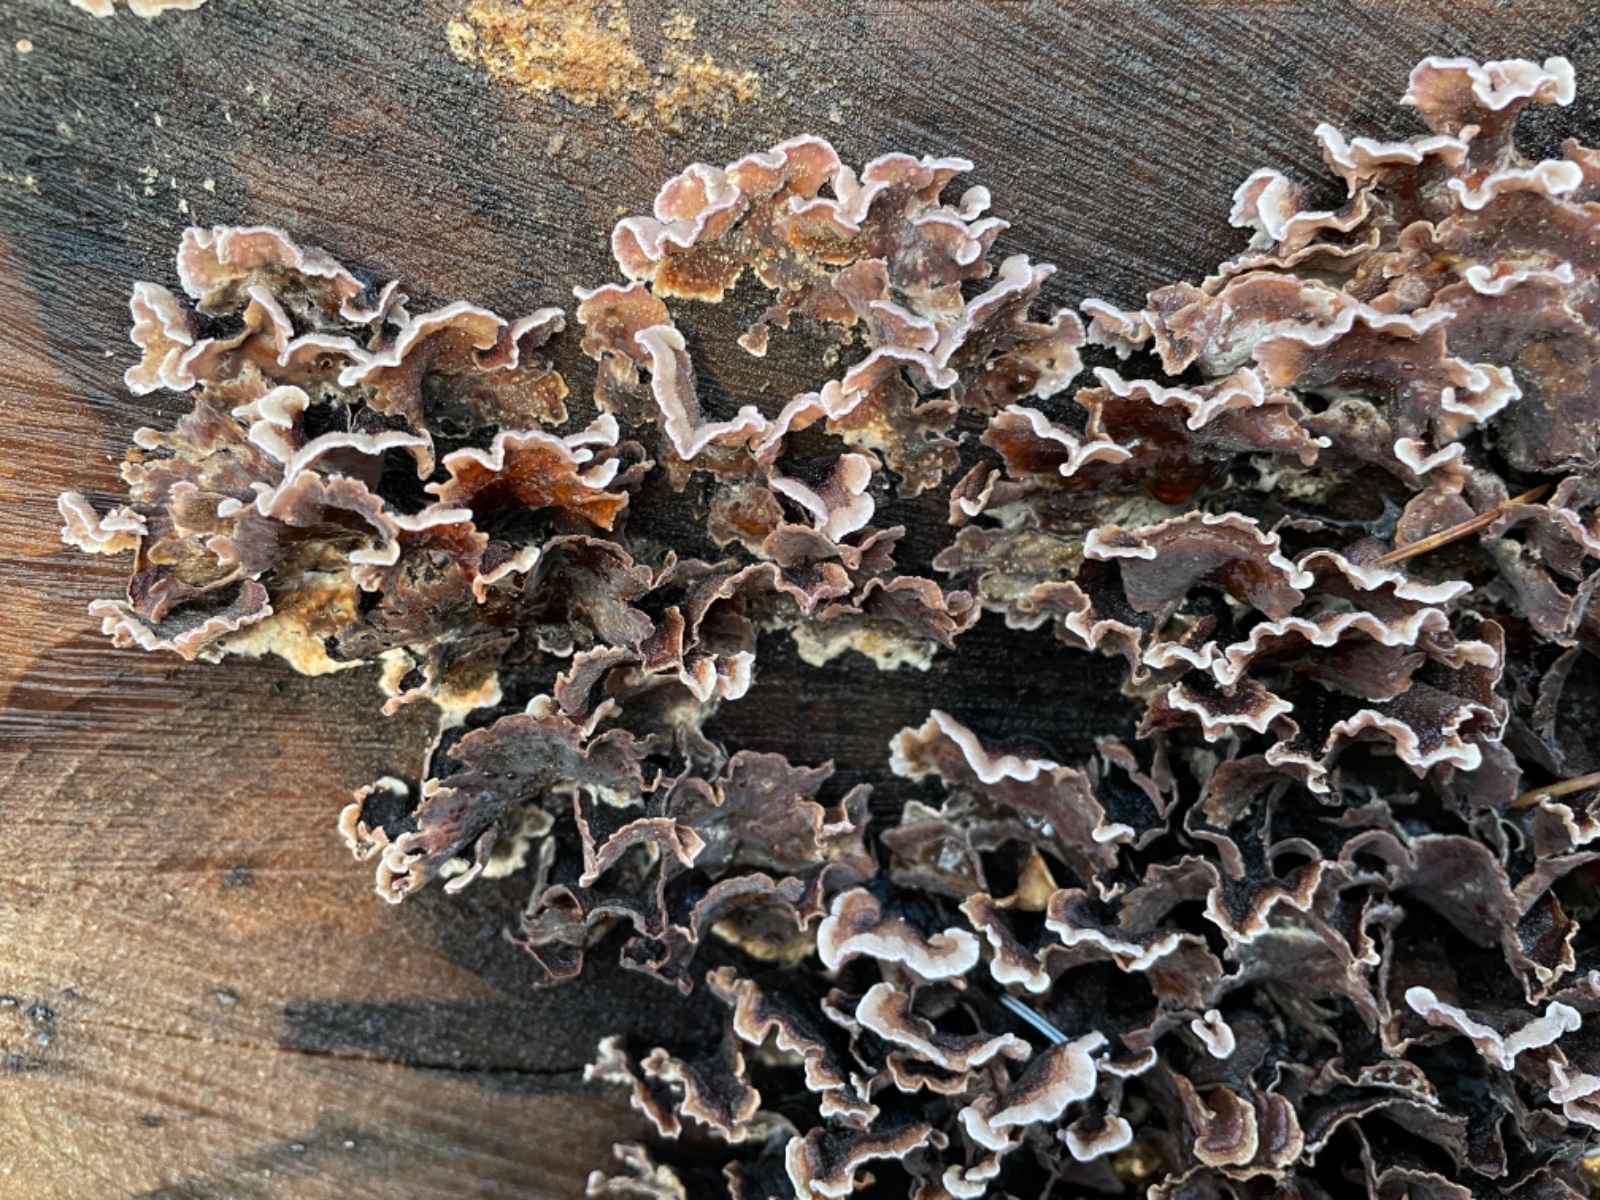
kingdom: Fungi
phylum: Basidiomycota
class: Agaricomycetes
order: Agaricales
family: Cyphellaceae
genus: Chondrostereum
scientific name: Chondrostereum purpureum
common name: purpurlædersvamp
